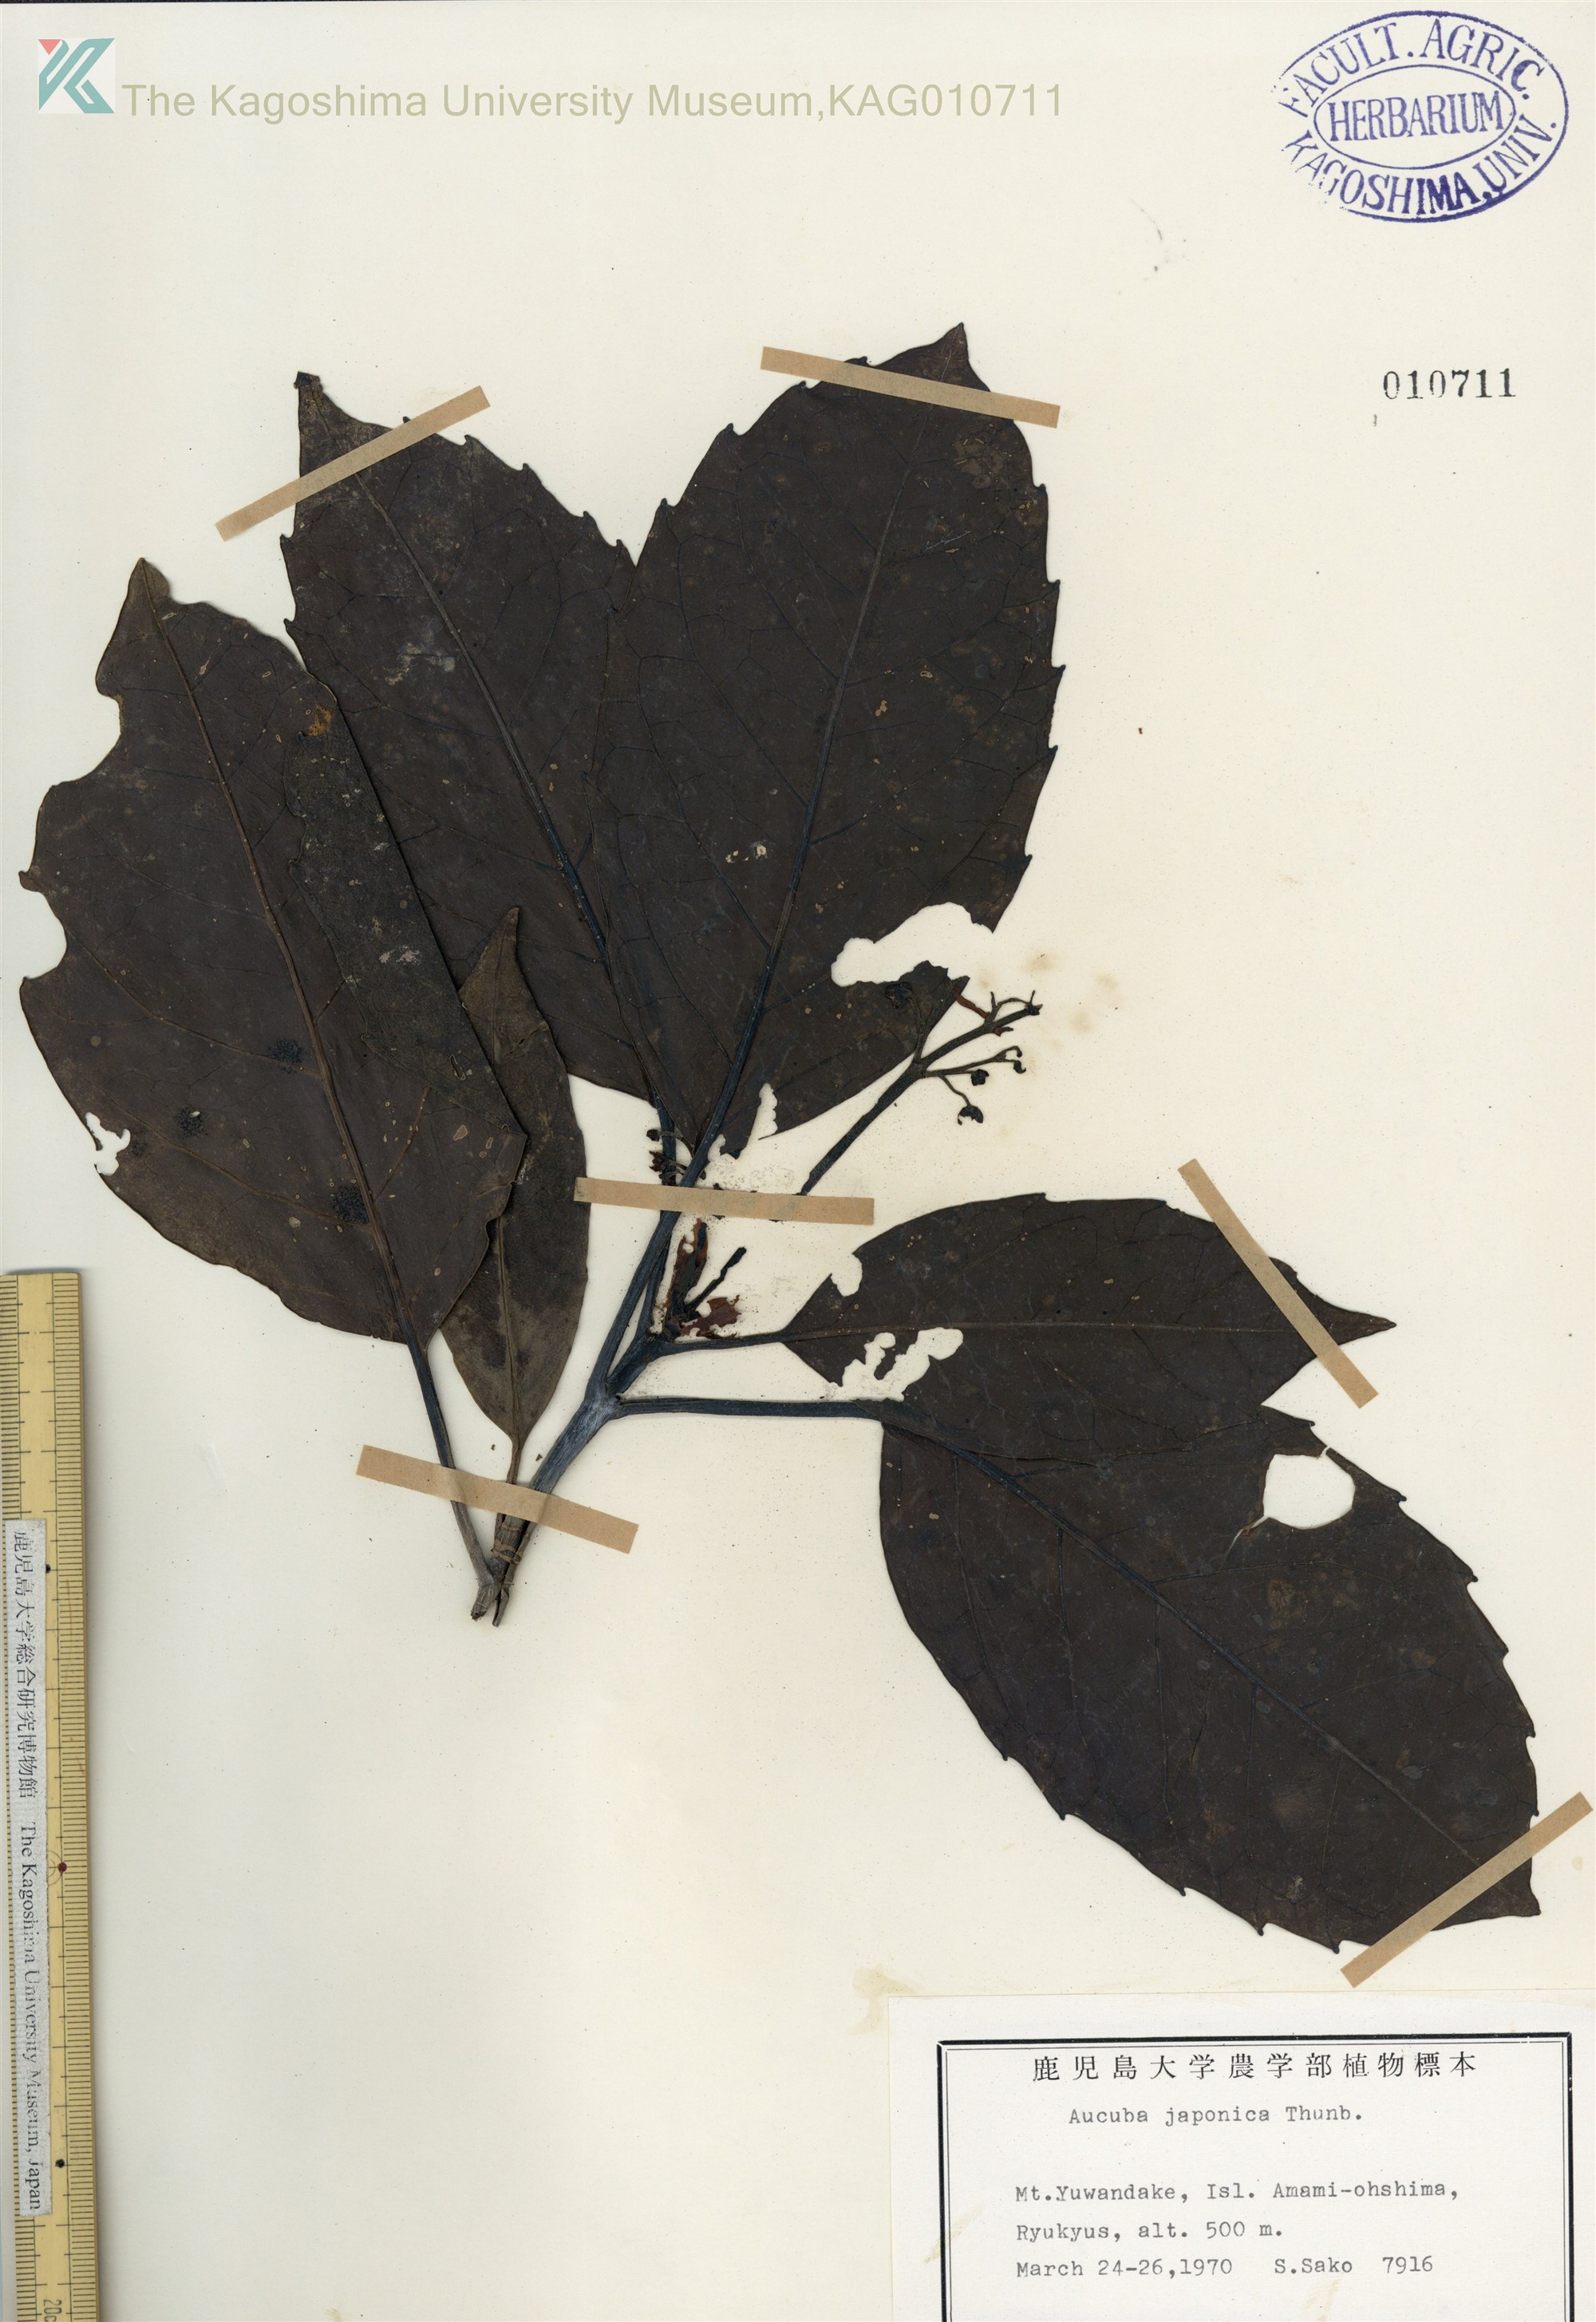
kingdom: Plantae
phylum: Tracheophyta
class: Magnoliopsida
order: Garryales
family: Garryaceae
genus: Aucuba
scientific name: Aucuba japonica
